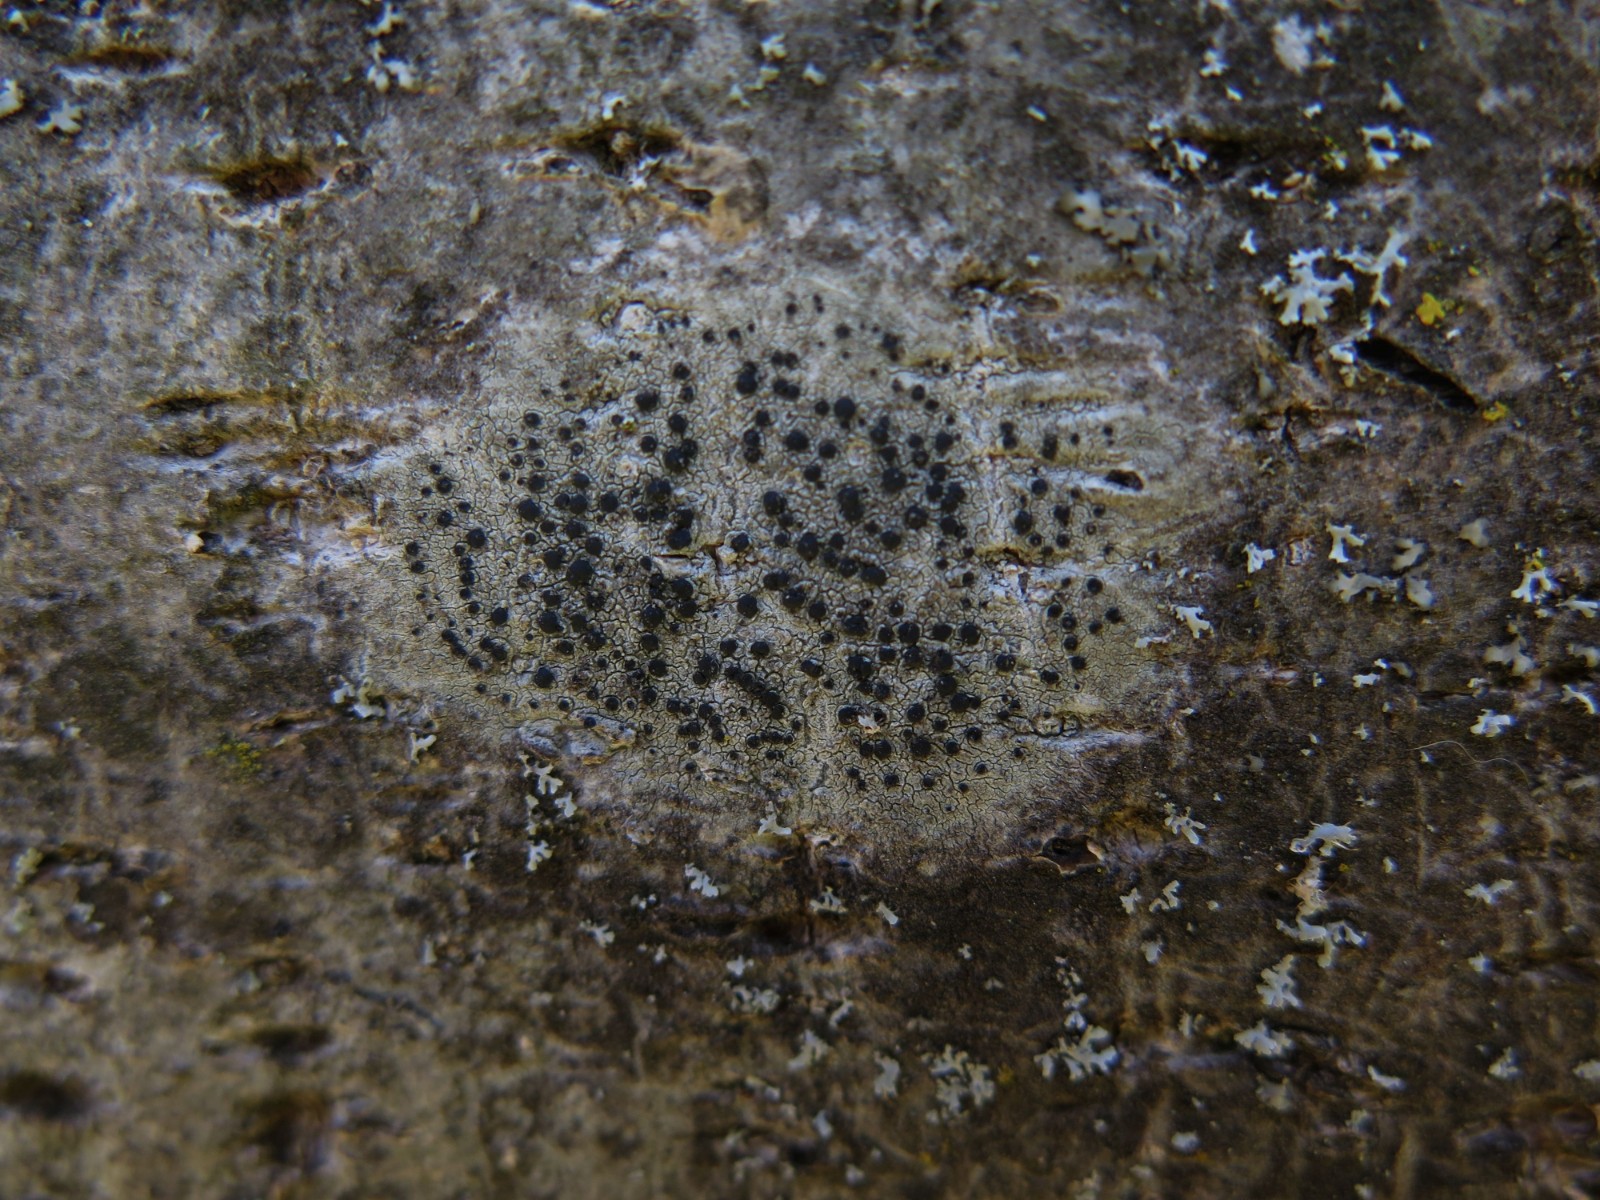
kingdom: Fungi
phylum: Ascomycota
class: Lecanoromycetes
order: Lecanorales
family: Lecanoraceae
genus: Lecidella
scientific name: Lecidella elaeochroma
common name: grågrøn skivelav
